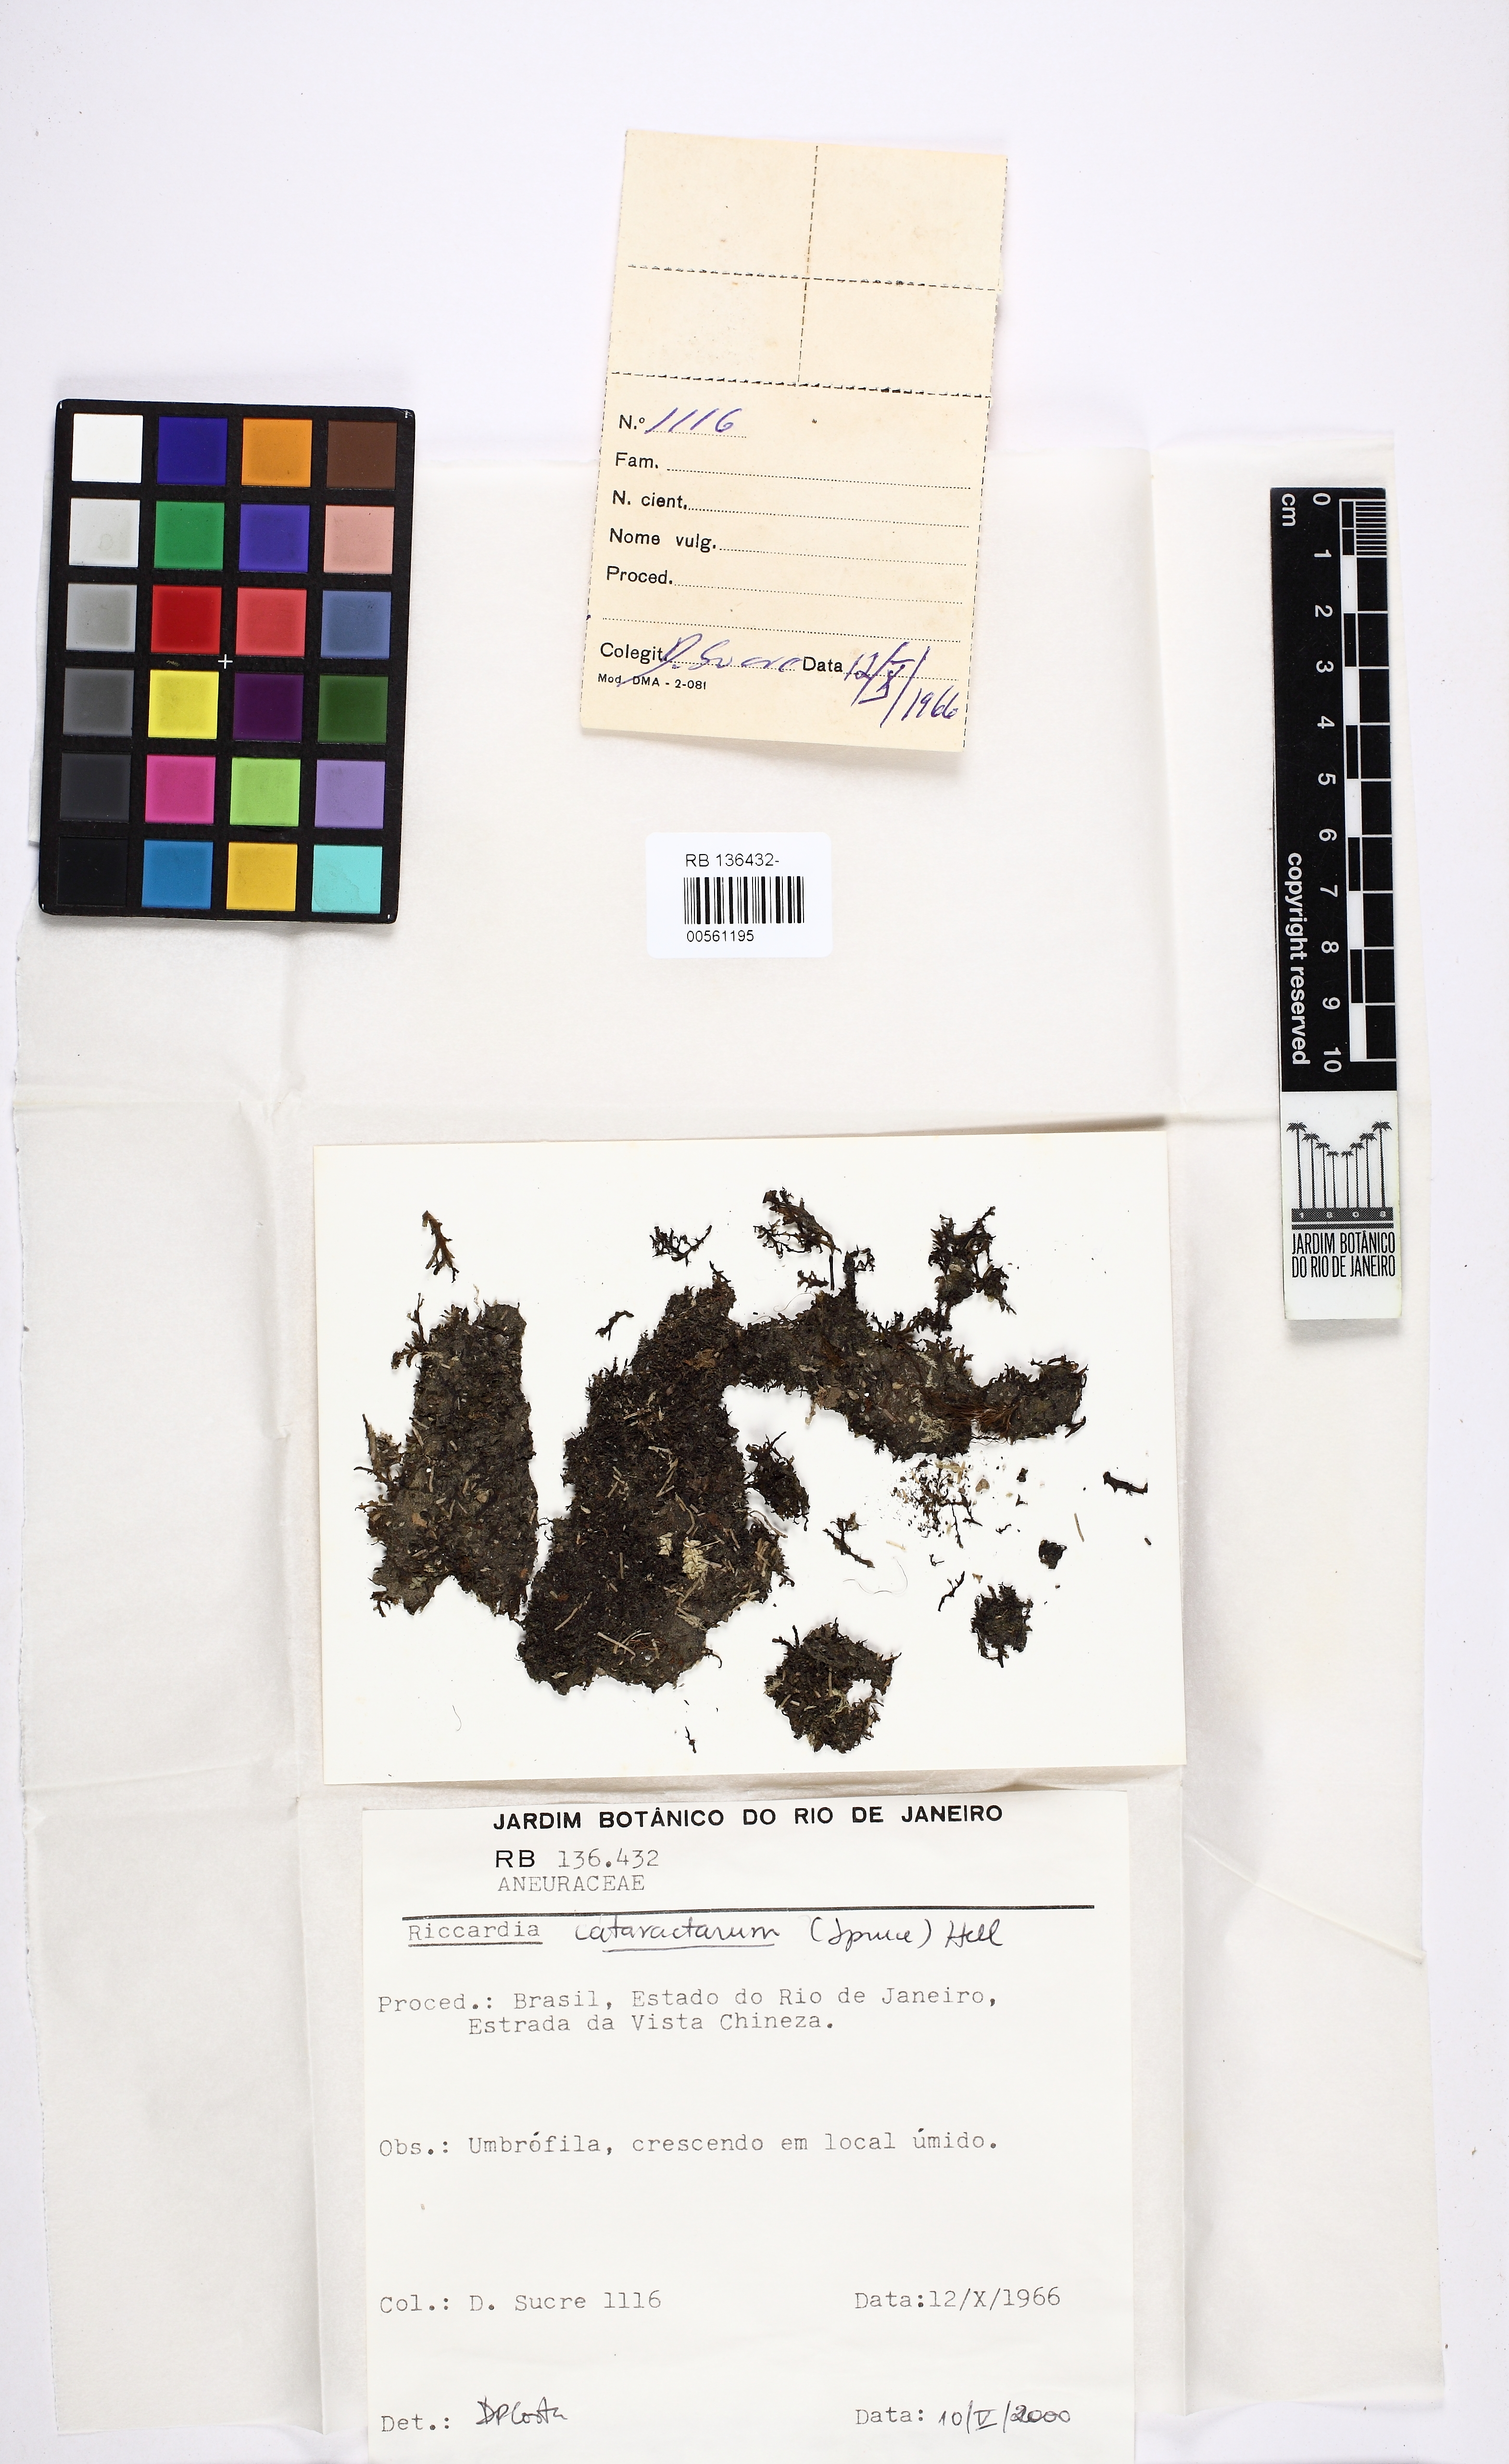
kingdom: Plantae
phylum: Marchantiophyta
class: Jungermanniopsida
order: Metzgeriales
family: Aneuraceae
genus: Riccardia
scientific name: Riccardia cataractarum
